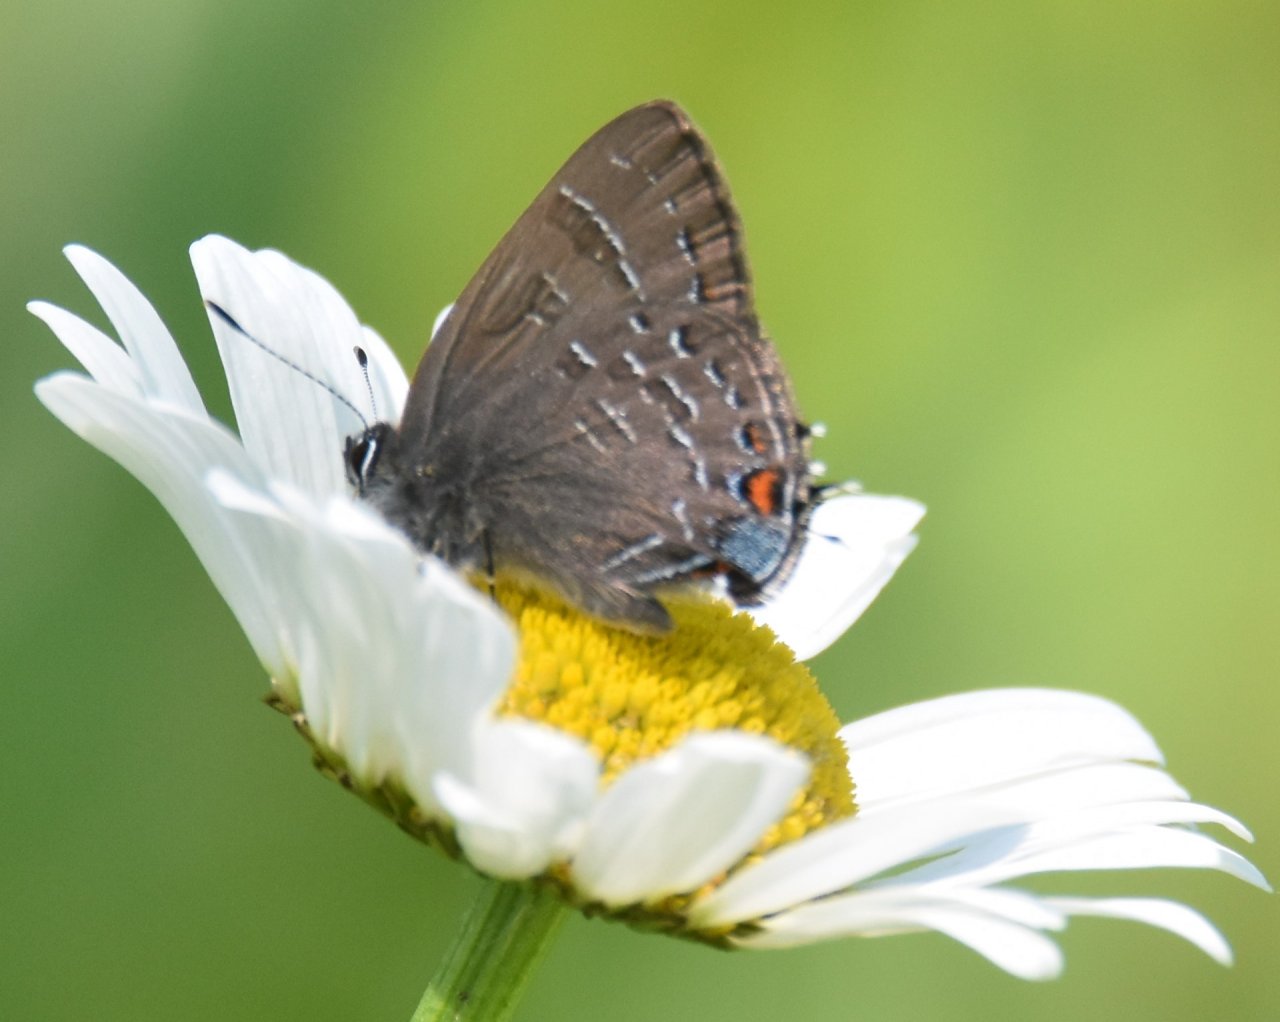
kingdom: Animalia
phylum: Arthropoda
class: Insecta
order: Lepidoptera
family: Lycaenidae
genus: Satyrium
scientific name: Satyrium calanus
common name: Banded Hairstreak
